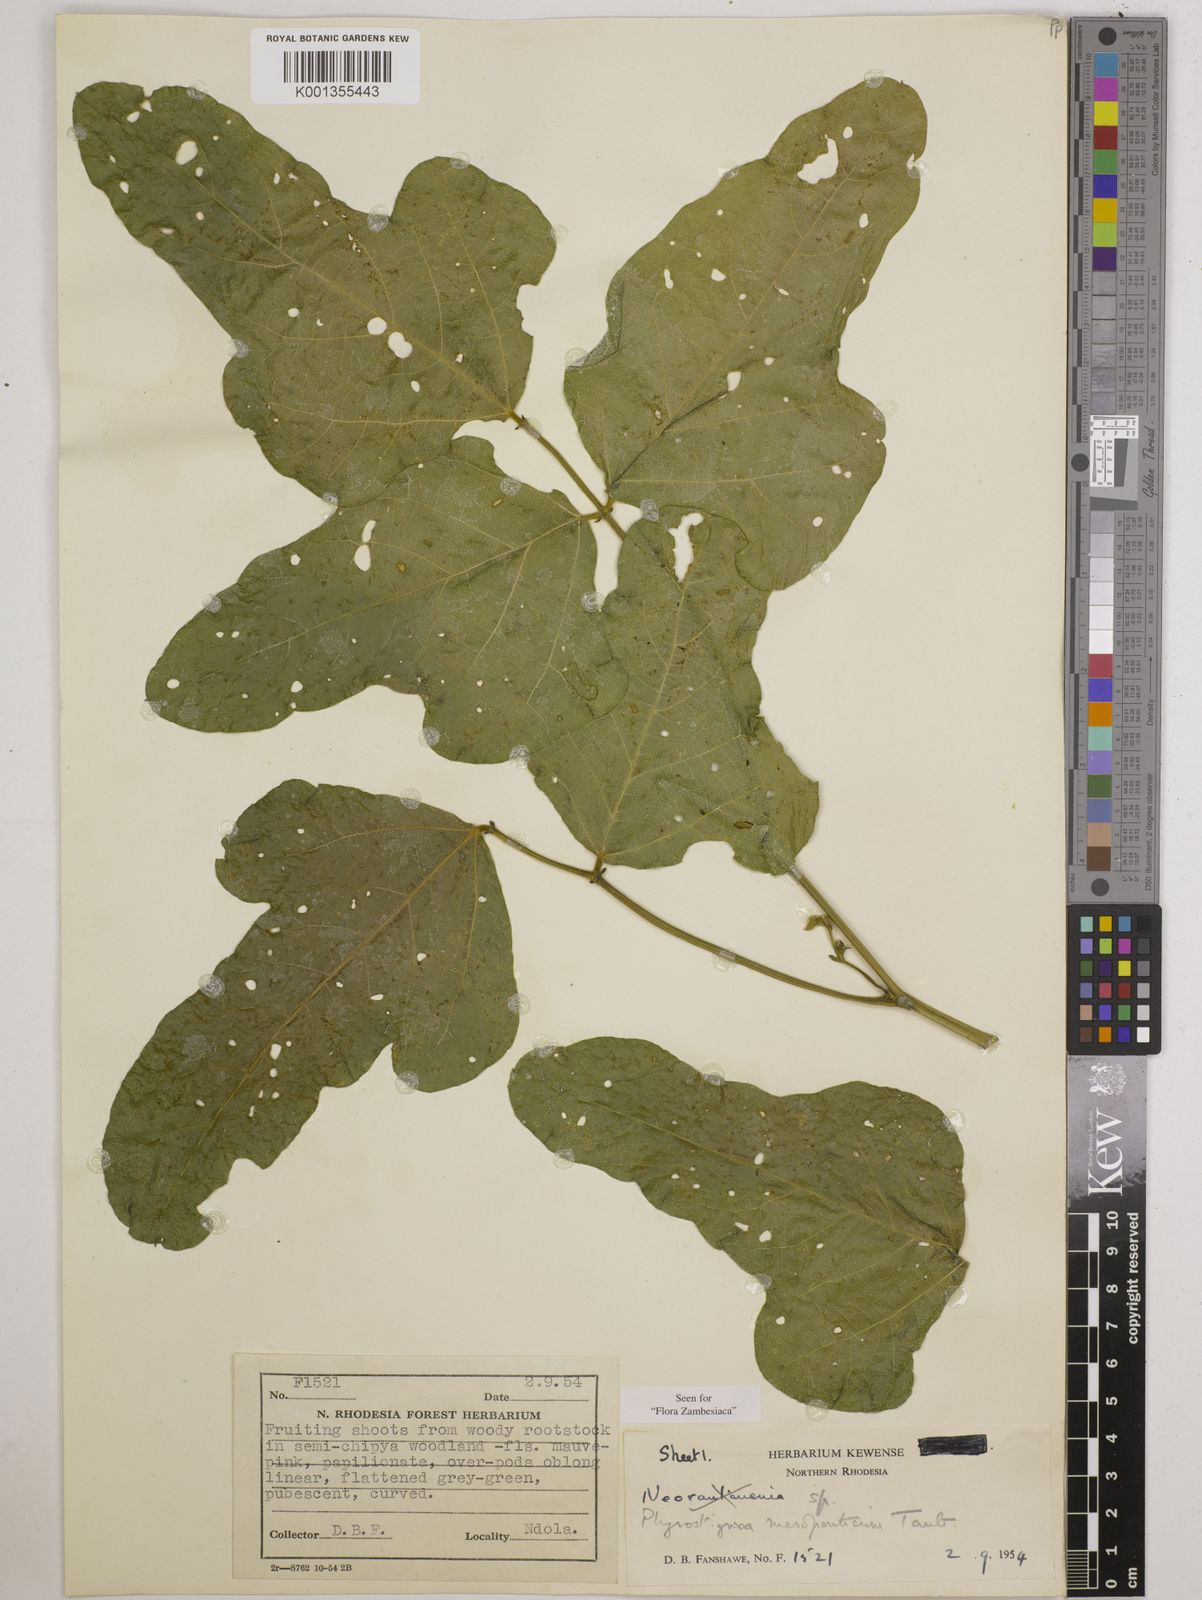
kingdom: Plantae
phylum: Tracheophyta
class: Magnoliopsida
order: Fabales
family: Fabaceae
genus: Physostigma
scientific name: Physostigma mesoponticum
